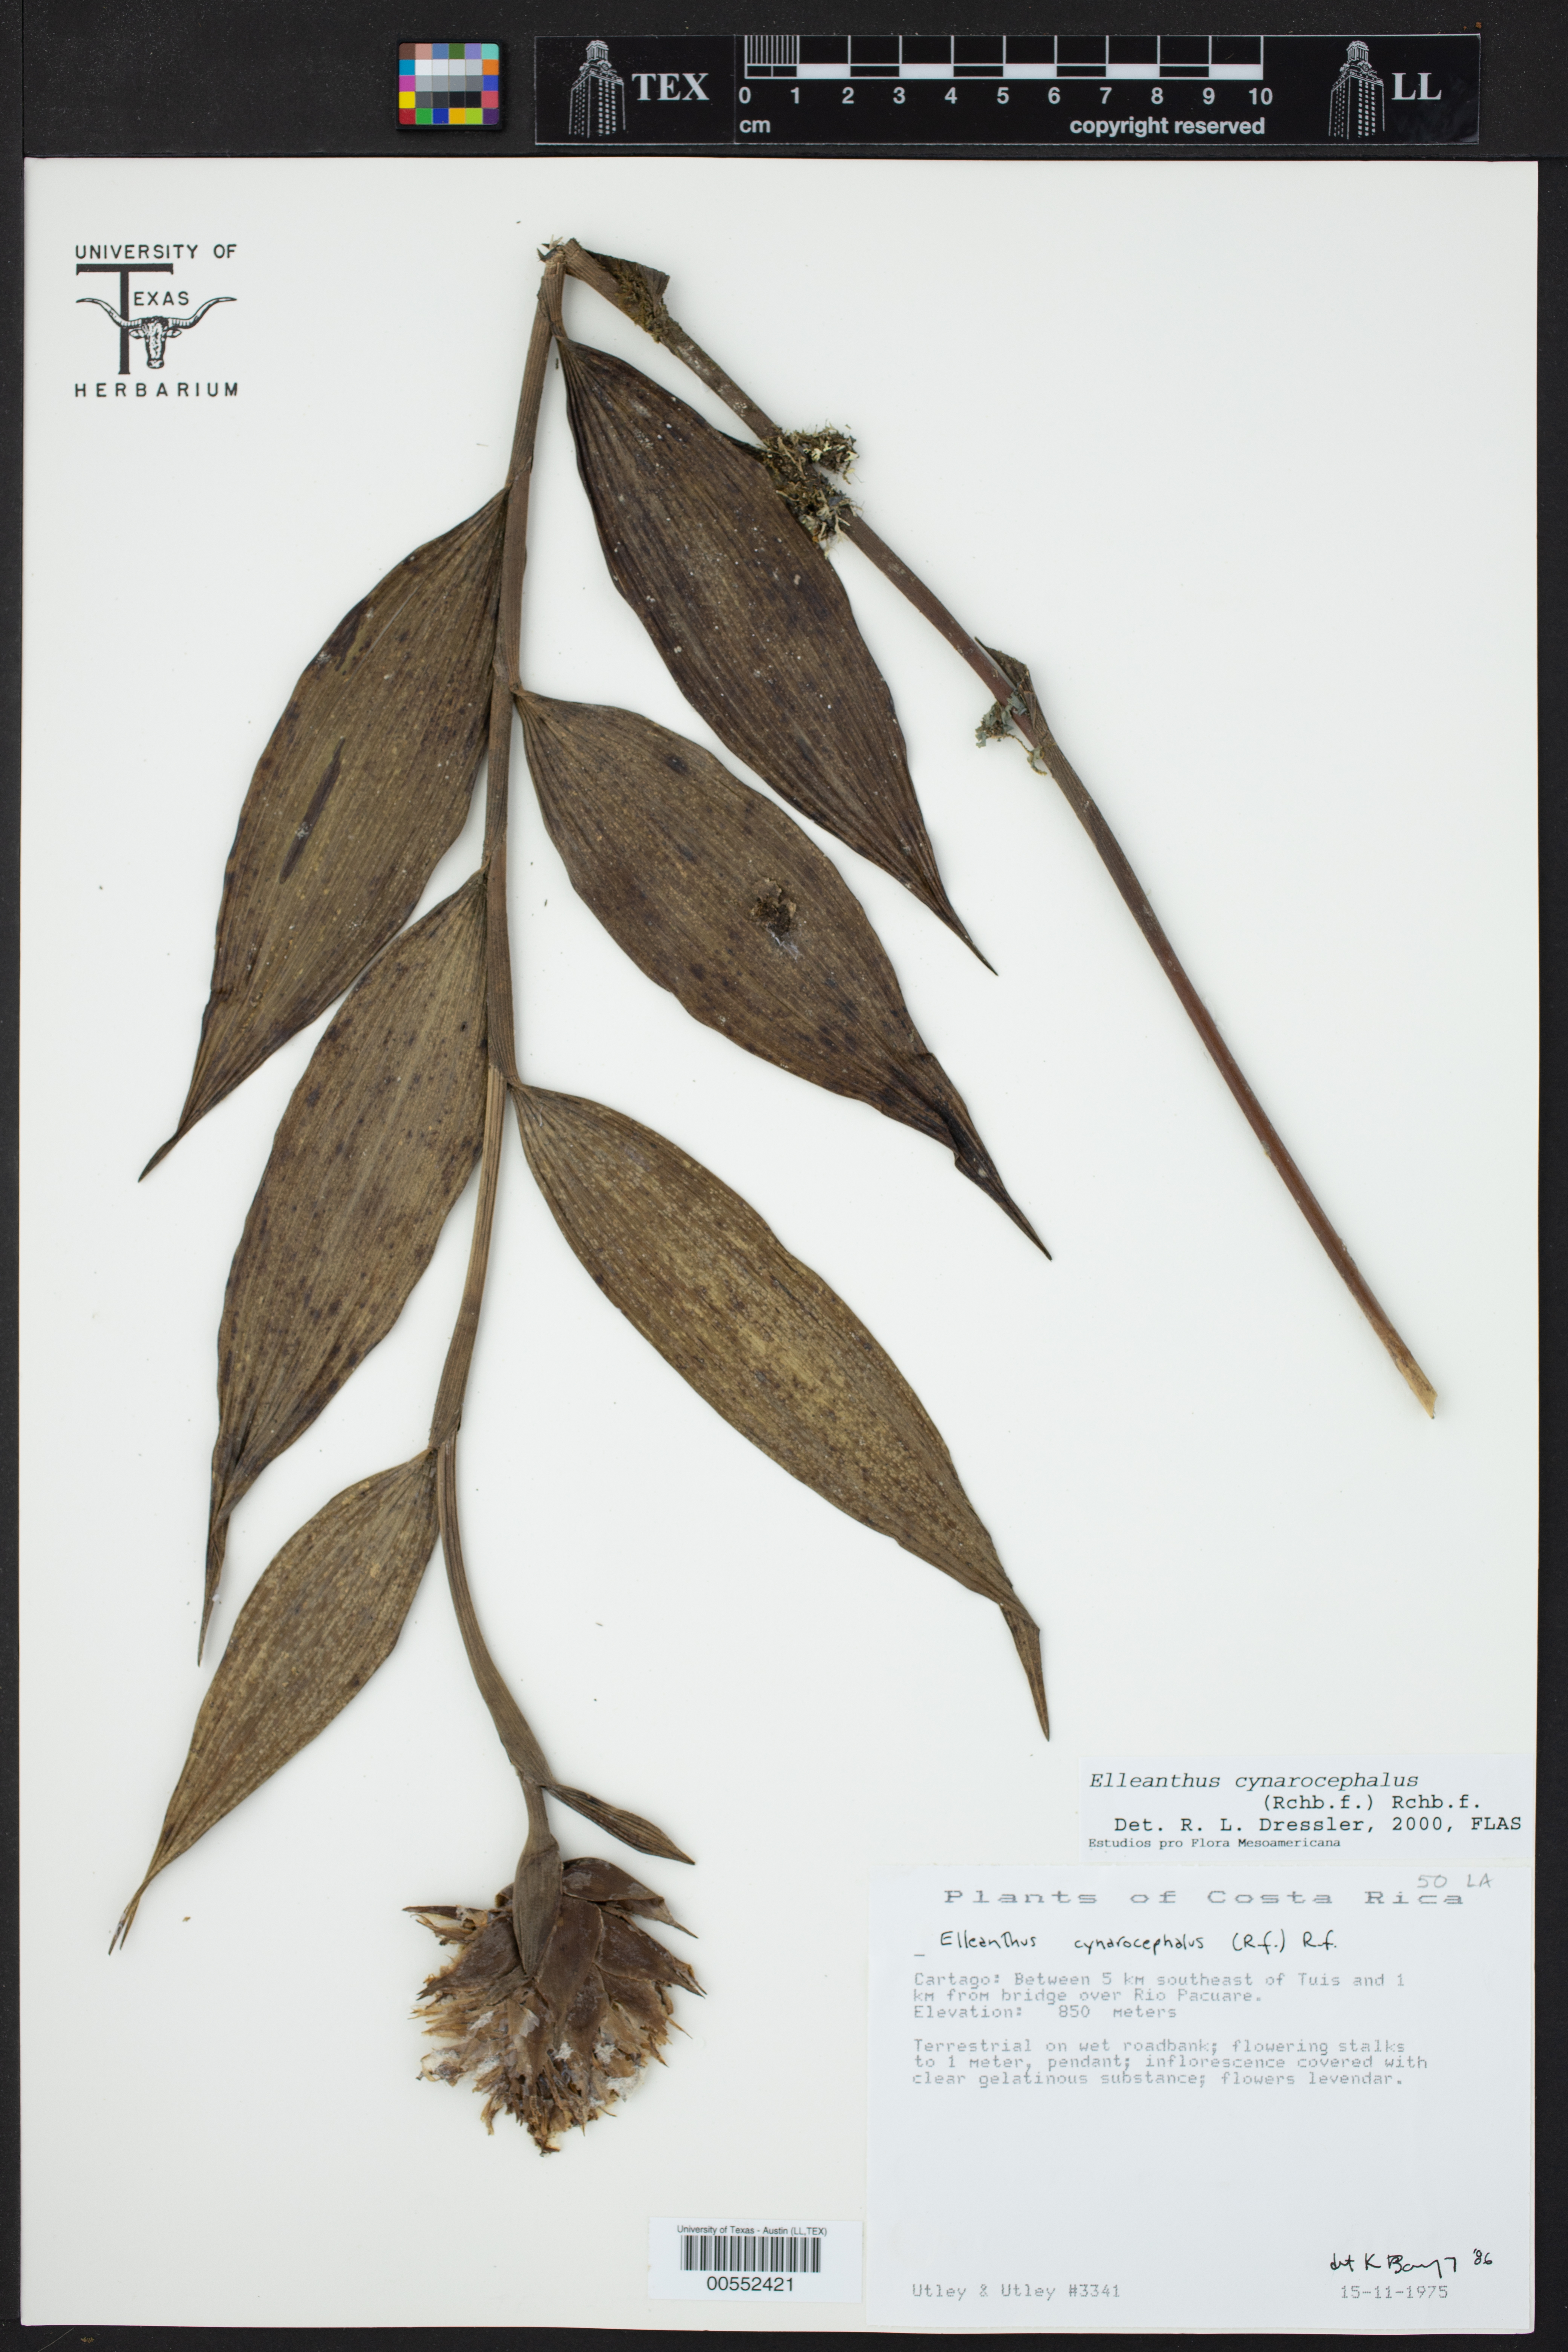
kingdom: Plantae
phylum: Tracheophyta
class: Liliopsida
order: Asparagales
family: Orchidaceae
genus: Elleanthus
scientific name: Elleanthus capitatus
